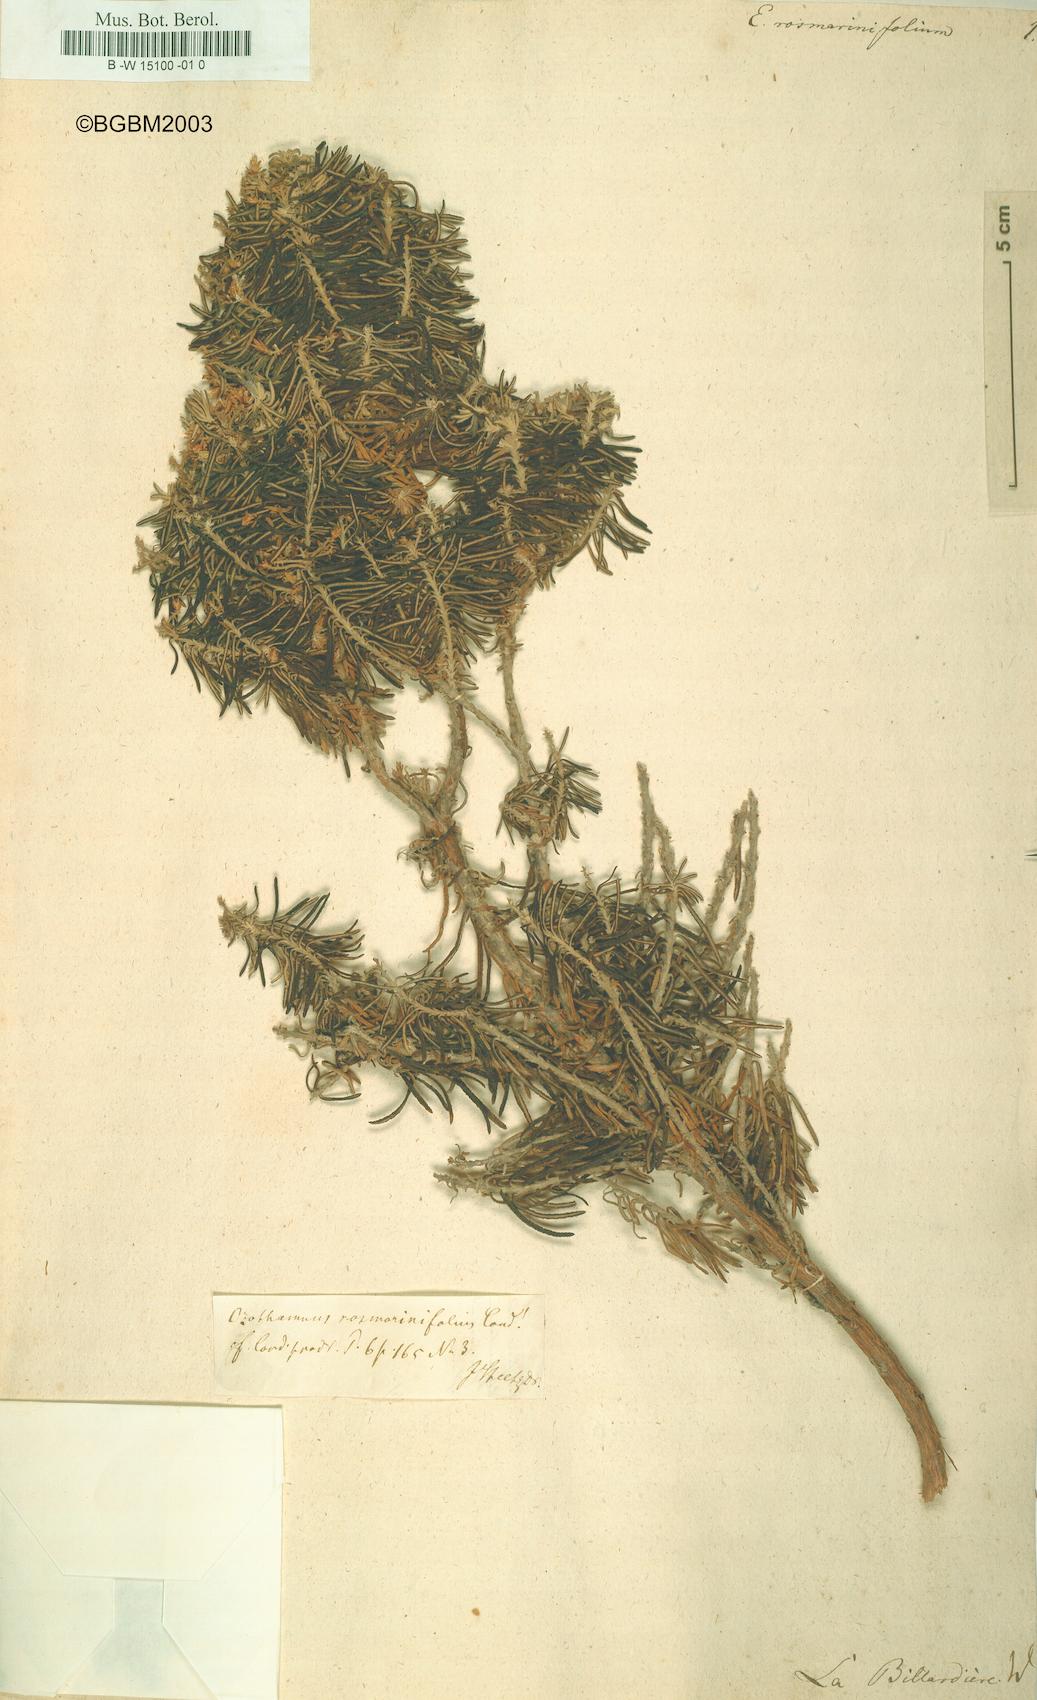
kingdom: Plantae
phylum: Tracheophyta
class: Magnoliopsida
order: Asterales
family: Asteraceae
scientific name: Asteraceae
